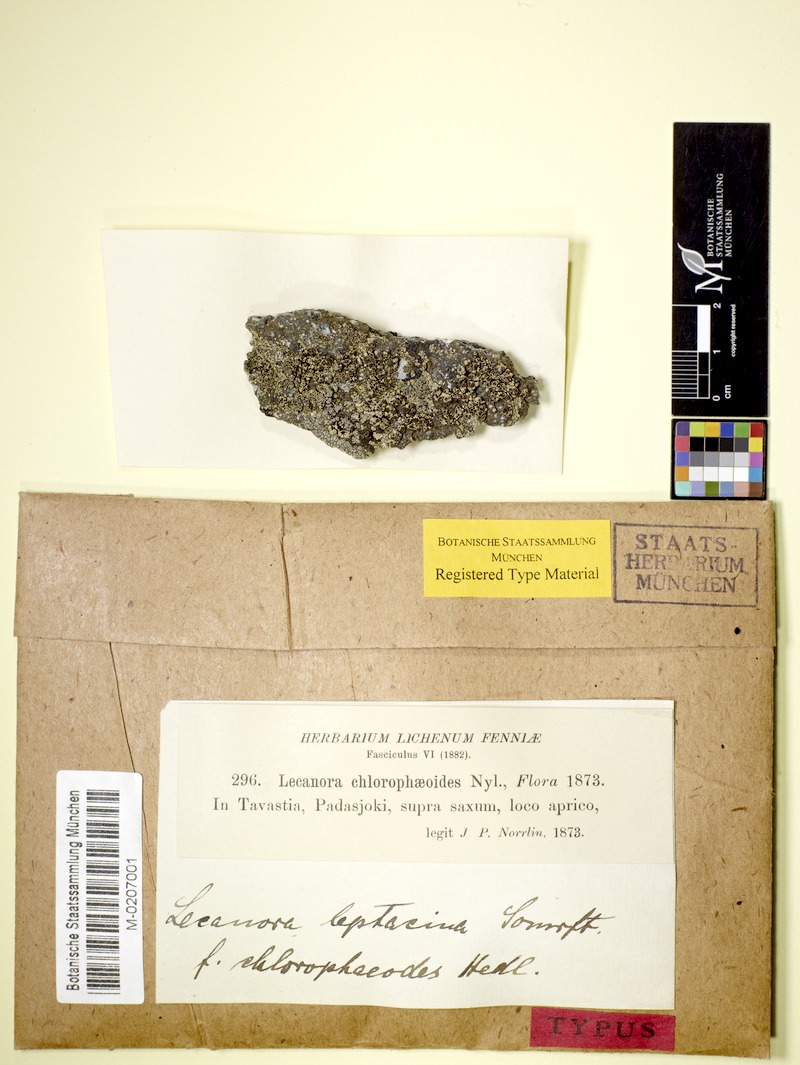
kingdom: Fungi
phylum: Ascomycota
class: Lecanoromycetes
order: Lecanorales
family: Lecanoraceae
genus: Lecanora
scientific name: Lecanora chlorophaeodes
